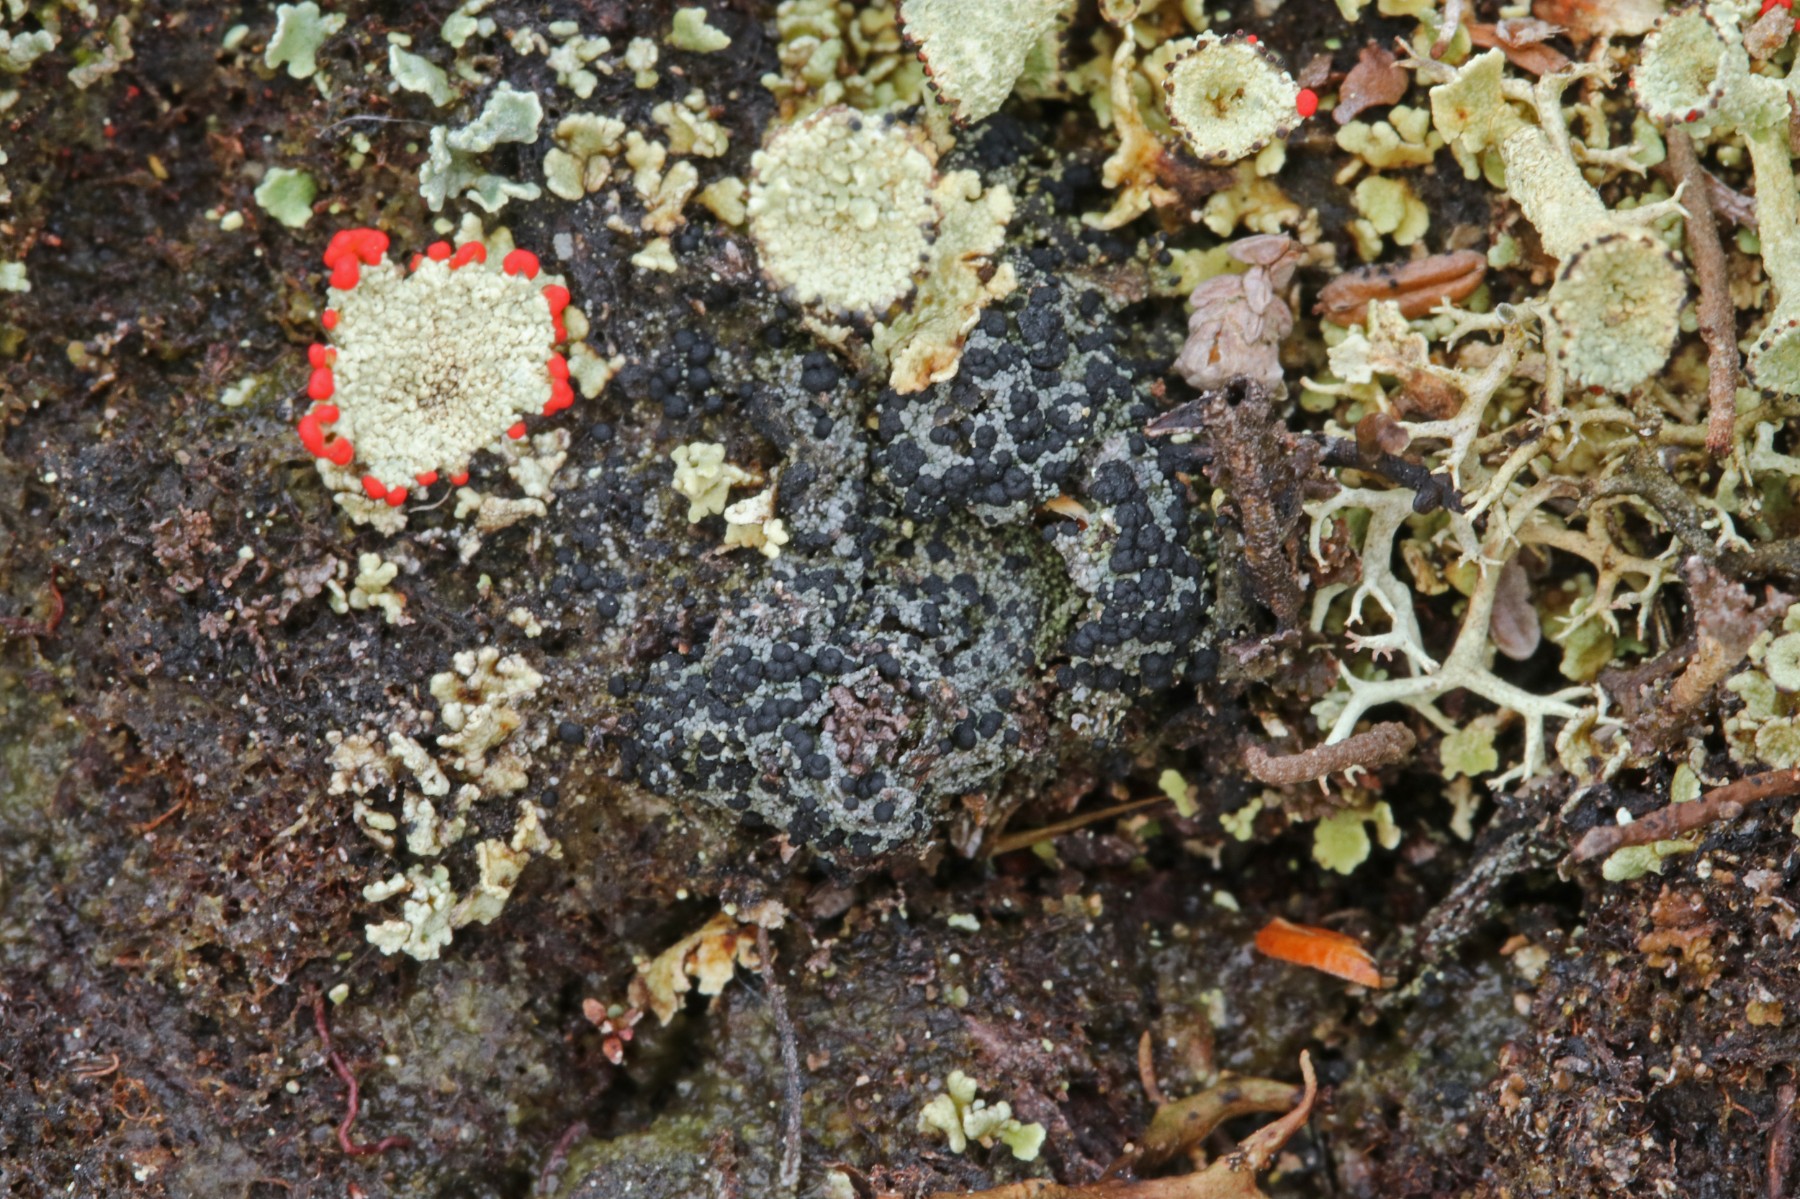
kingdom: Fungi
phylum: Ascomycota
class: Lecanoromycetes
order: Lecanorales
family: Byssolomataceae
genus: Micarea
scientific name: Micarea lignaria
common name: tørve-knaplav
